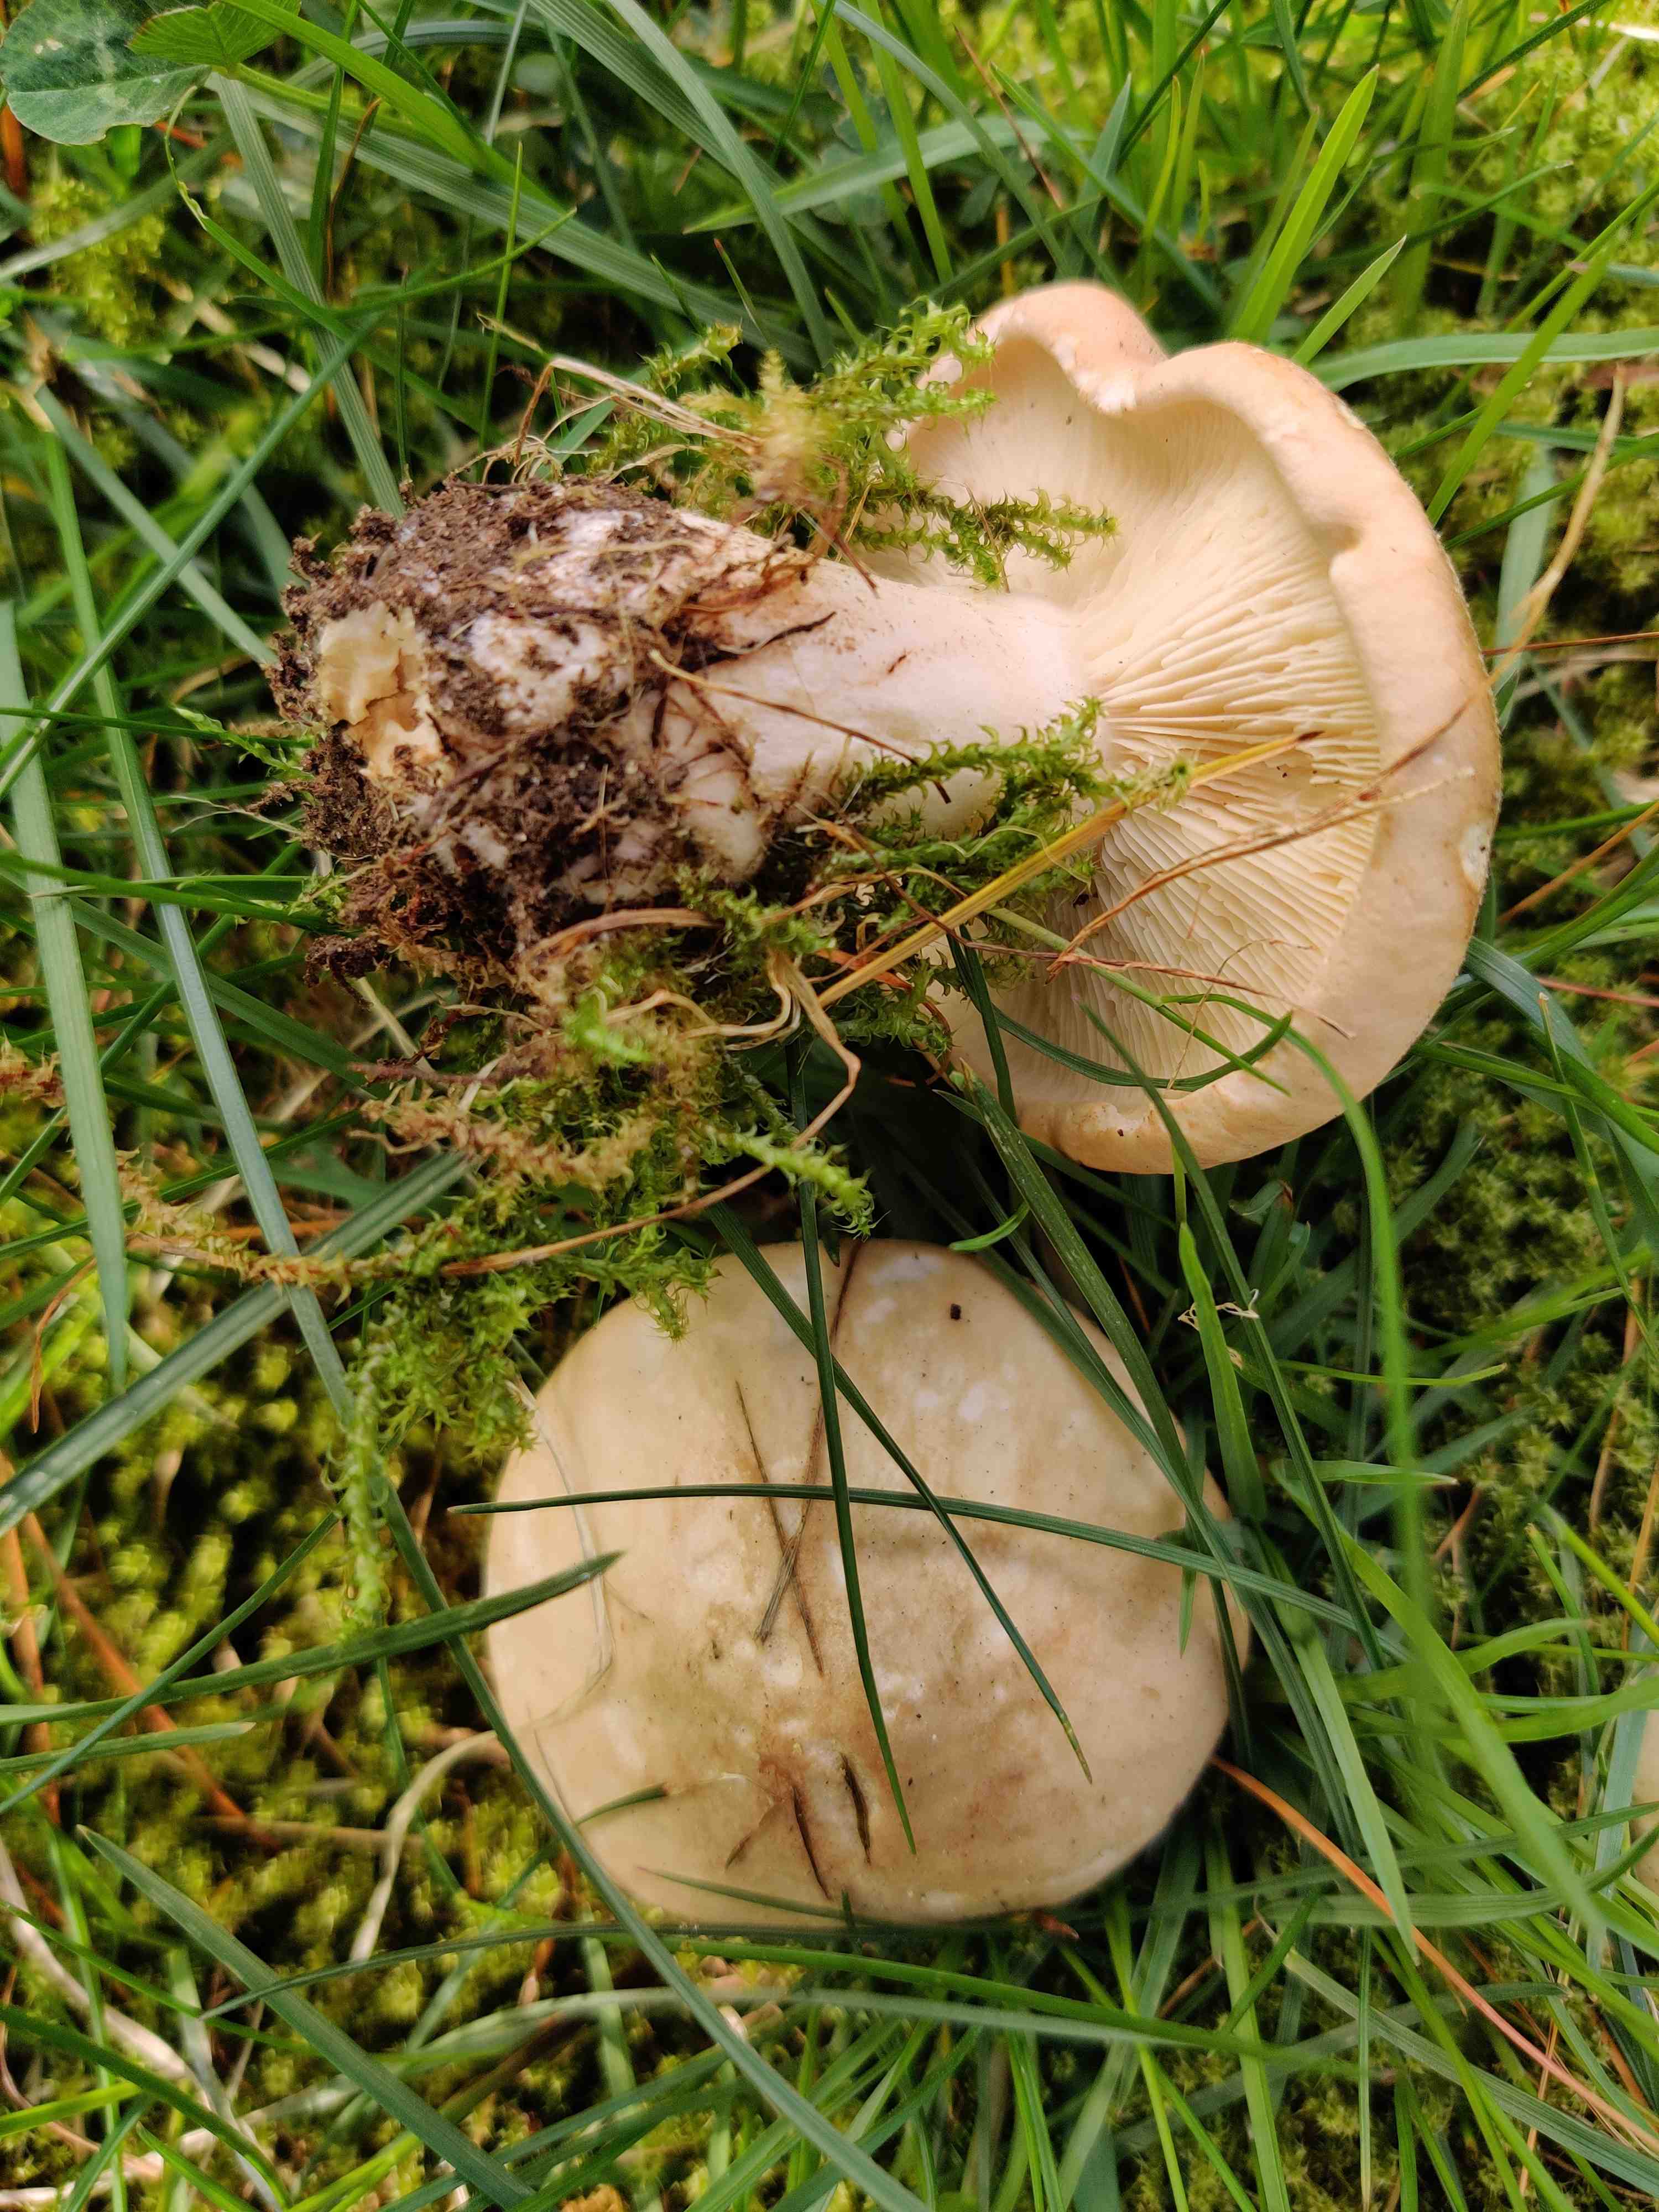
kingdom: Fungi
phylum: Basidiomycota
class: Agaricomycetes
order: Agaricales
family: Lyophyllaceae
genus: Calocybe
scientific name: Calocybe gambosa
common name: vårmusseron
